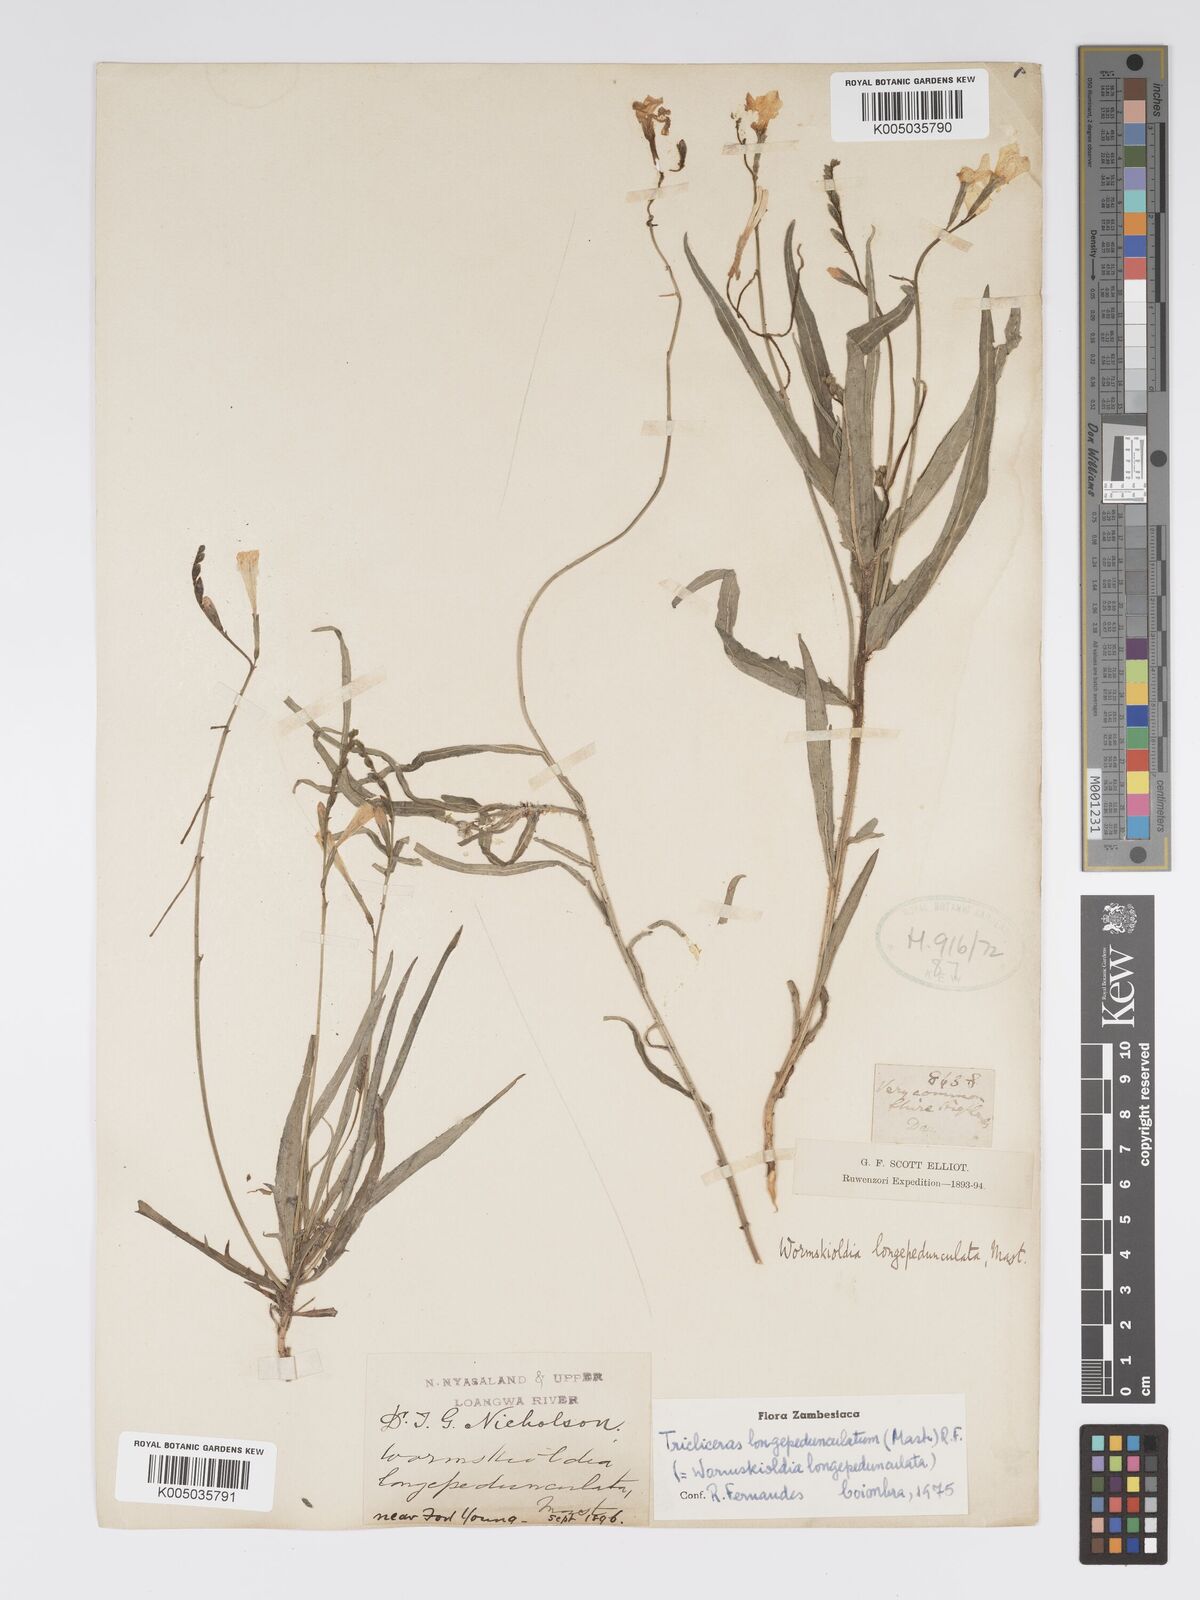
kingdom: Plantae
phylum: Tracheophyta
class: Magnoliopsida
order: Malpighiales
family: Turneraceae
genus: Tricliceras
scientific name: Tricliceras longepedunculatum
